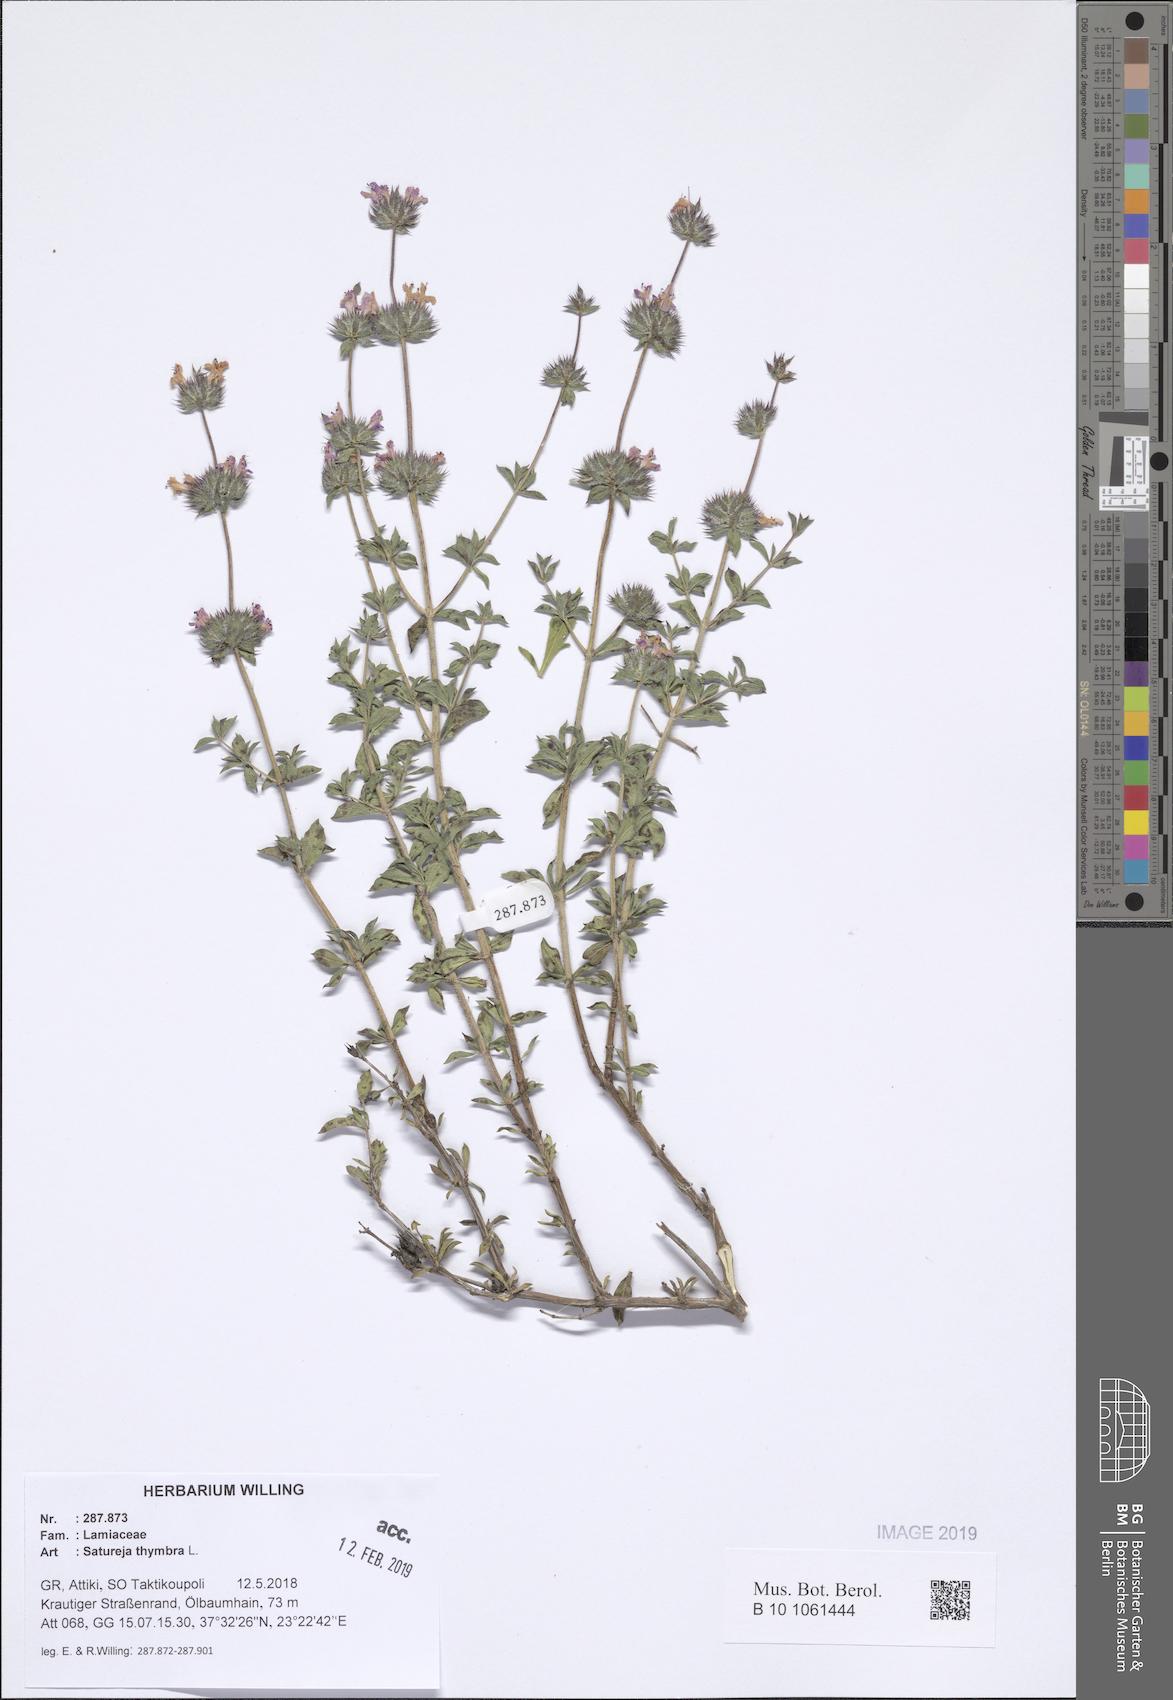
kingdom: Plantae
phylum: Tracheophyta
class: Magnoliopsida
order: Lamiales
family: Lamiaceae
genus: Satureja
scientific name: Satureja thymbra
